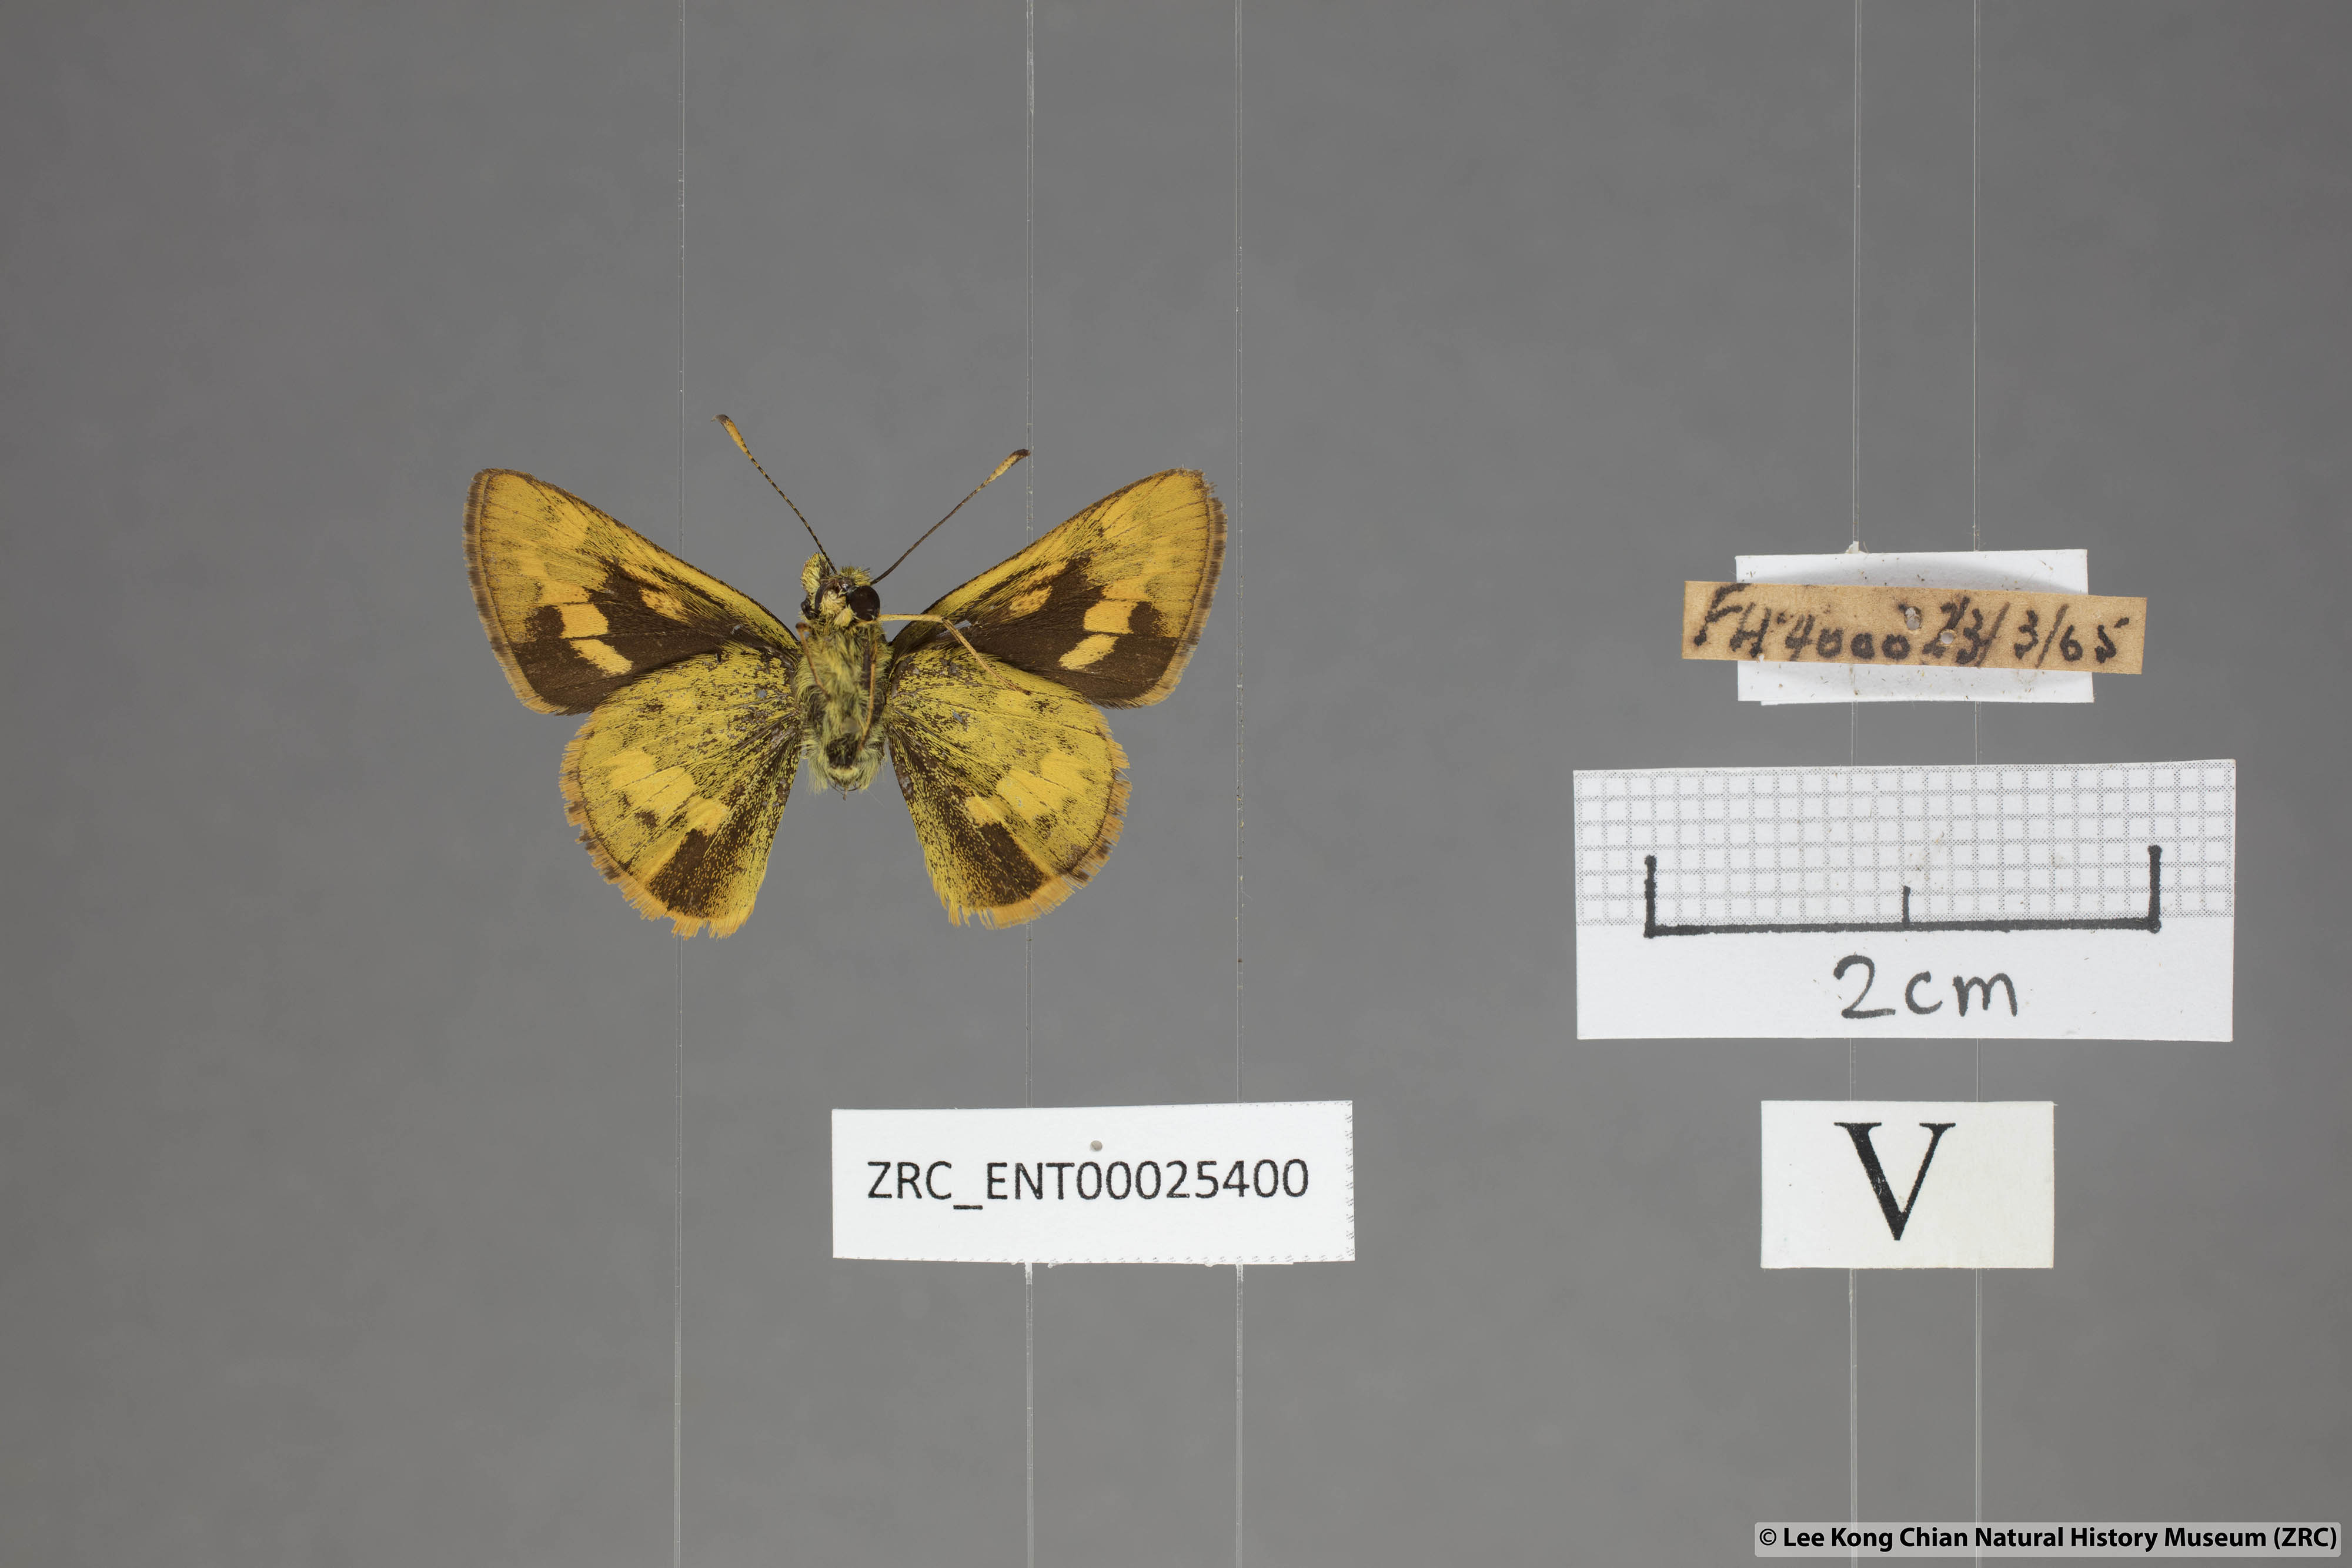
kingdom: Animalia
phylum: Arthropoda
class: Insecta
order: Lepidoptera
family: Hesperiidae
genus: Potanthus
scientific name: Potanthus lydia
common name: Lydia dart
